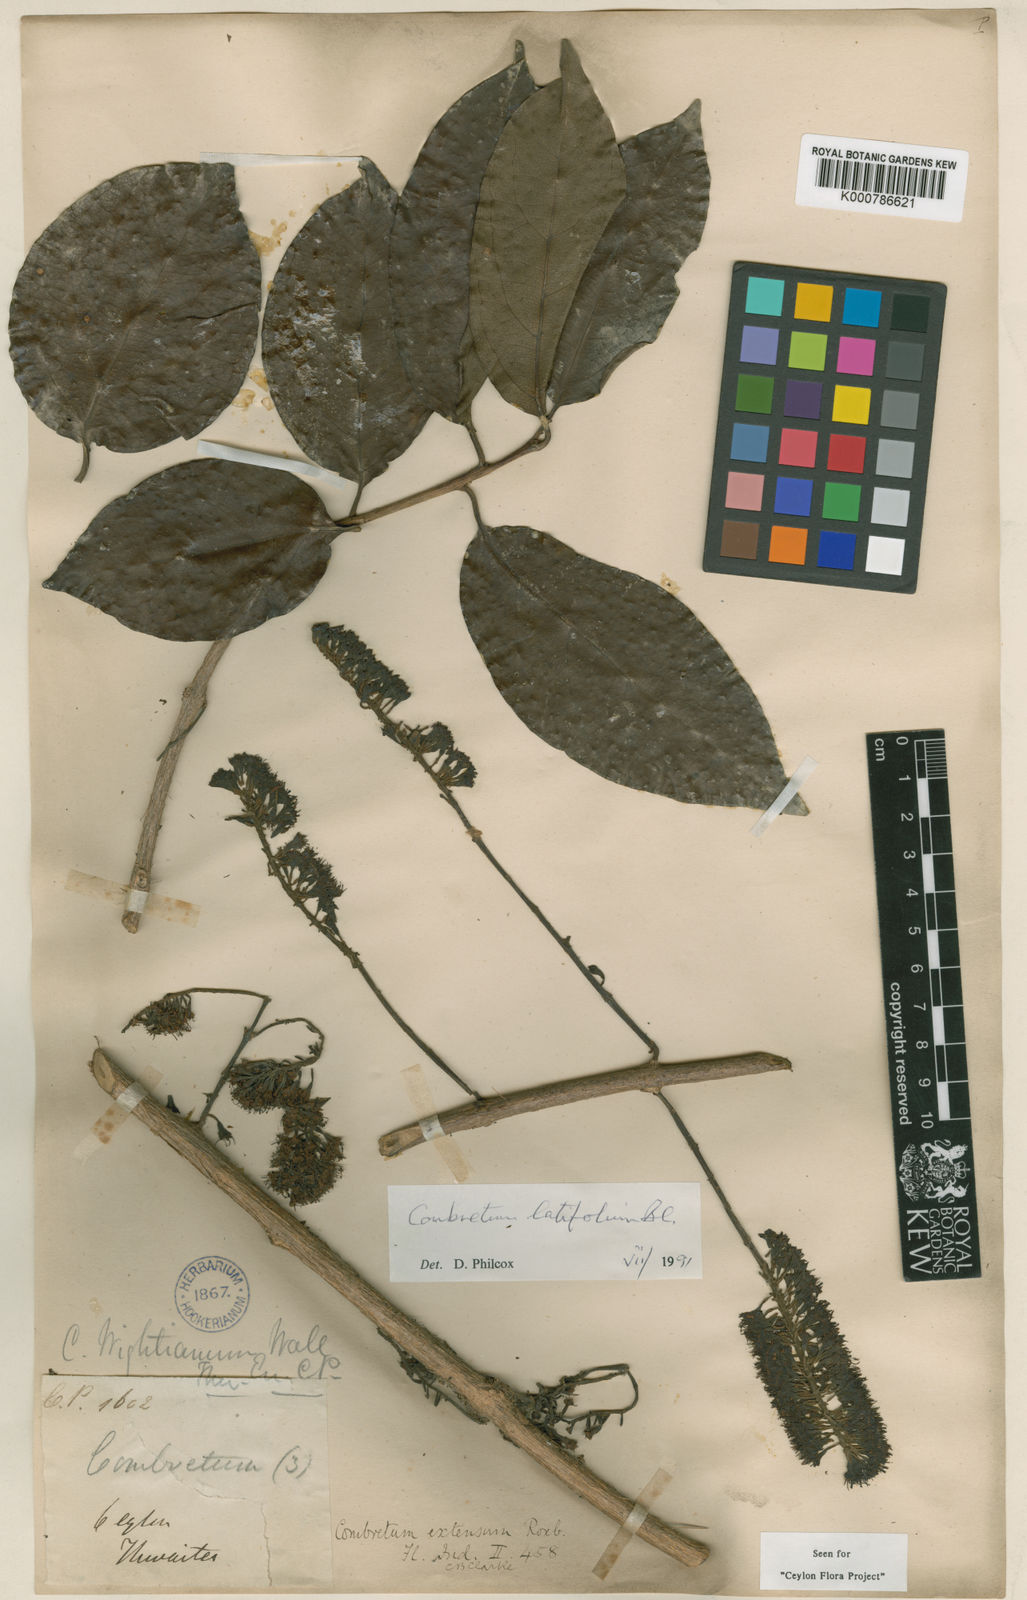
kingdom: Plantae
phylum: Tracheophyta
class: Magnoliopsida
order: Myrtales
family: Combretaceae
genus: Combretum
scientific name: Combretum latifolium
